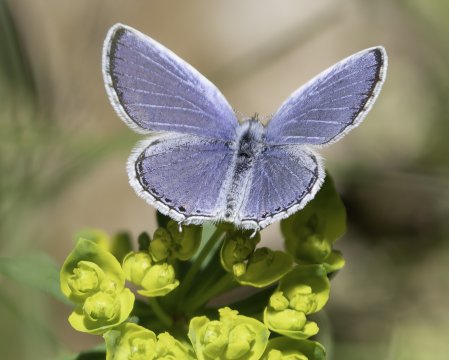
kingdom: Animalia
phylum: Arthropoda
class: Insecta
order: Lepidoptera
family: Lycaenidae
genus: Elkalyce
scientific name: Elkalyce comyntas
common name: Eastern Tailed-Blue
